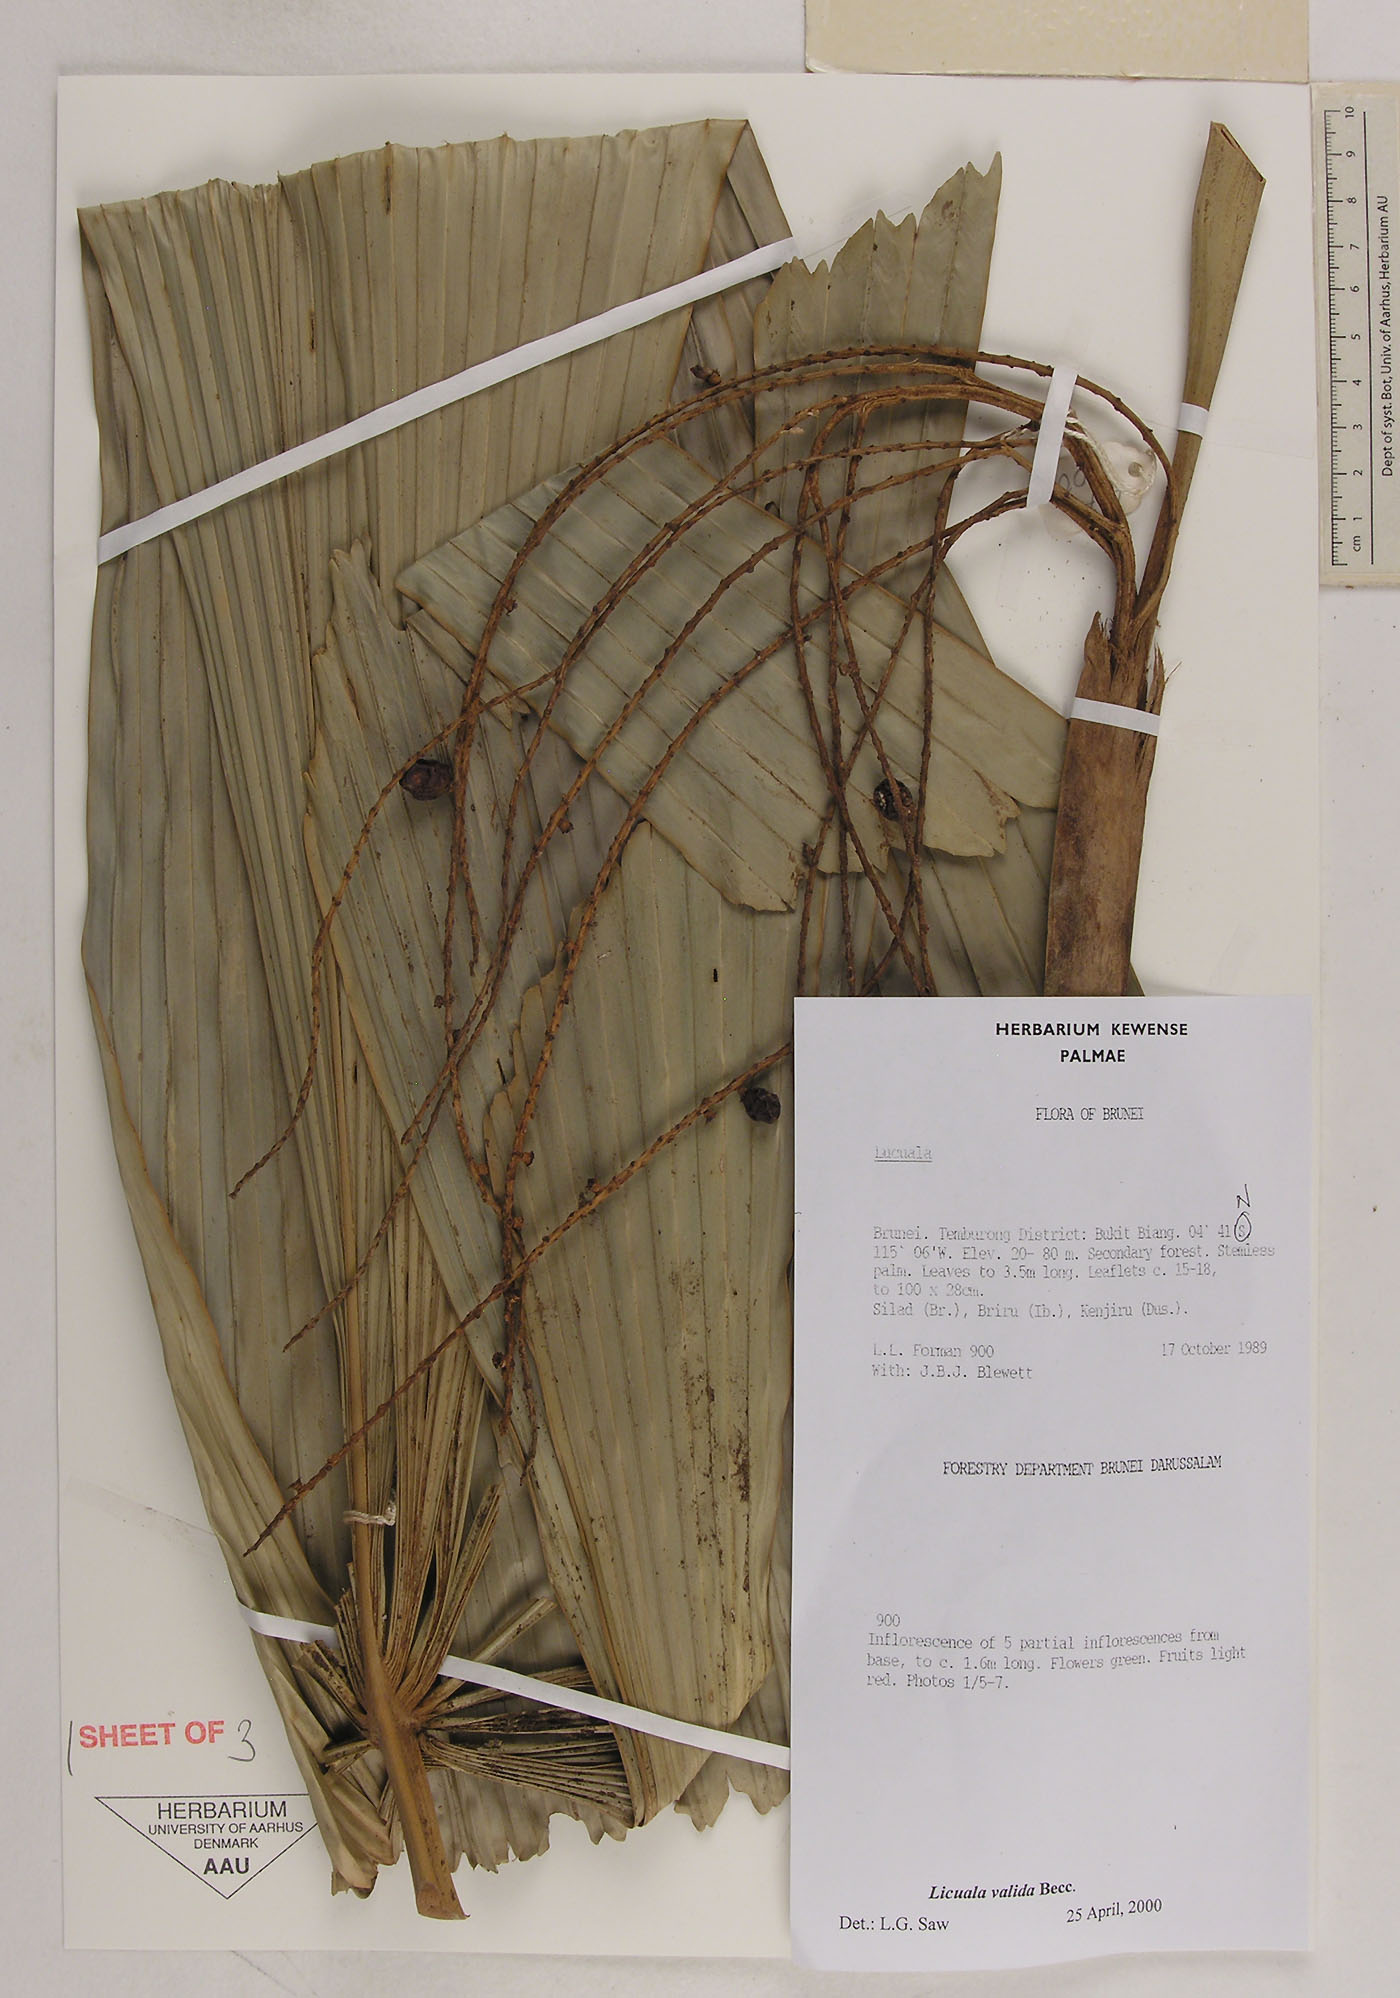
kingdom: Plantae
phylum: Tracheophyta
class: Liliopsida
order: Arecales
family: Arecaceae
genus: Licuala
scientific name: Licuala olivifera
